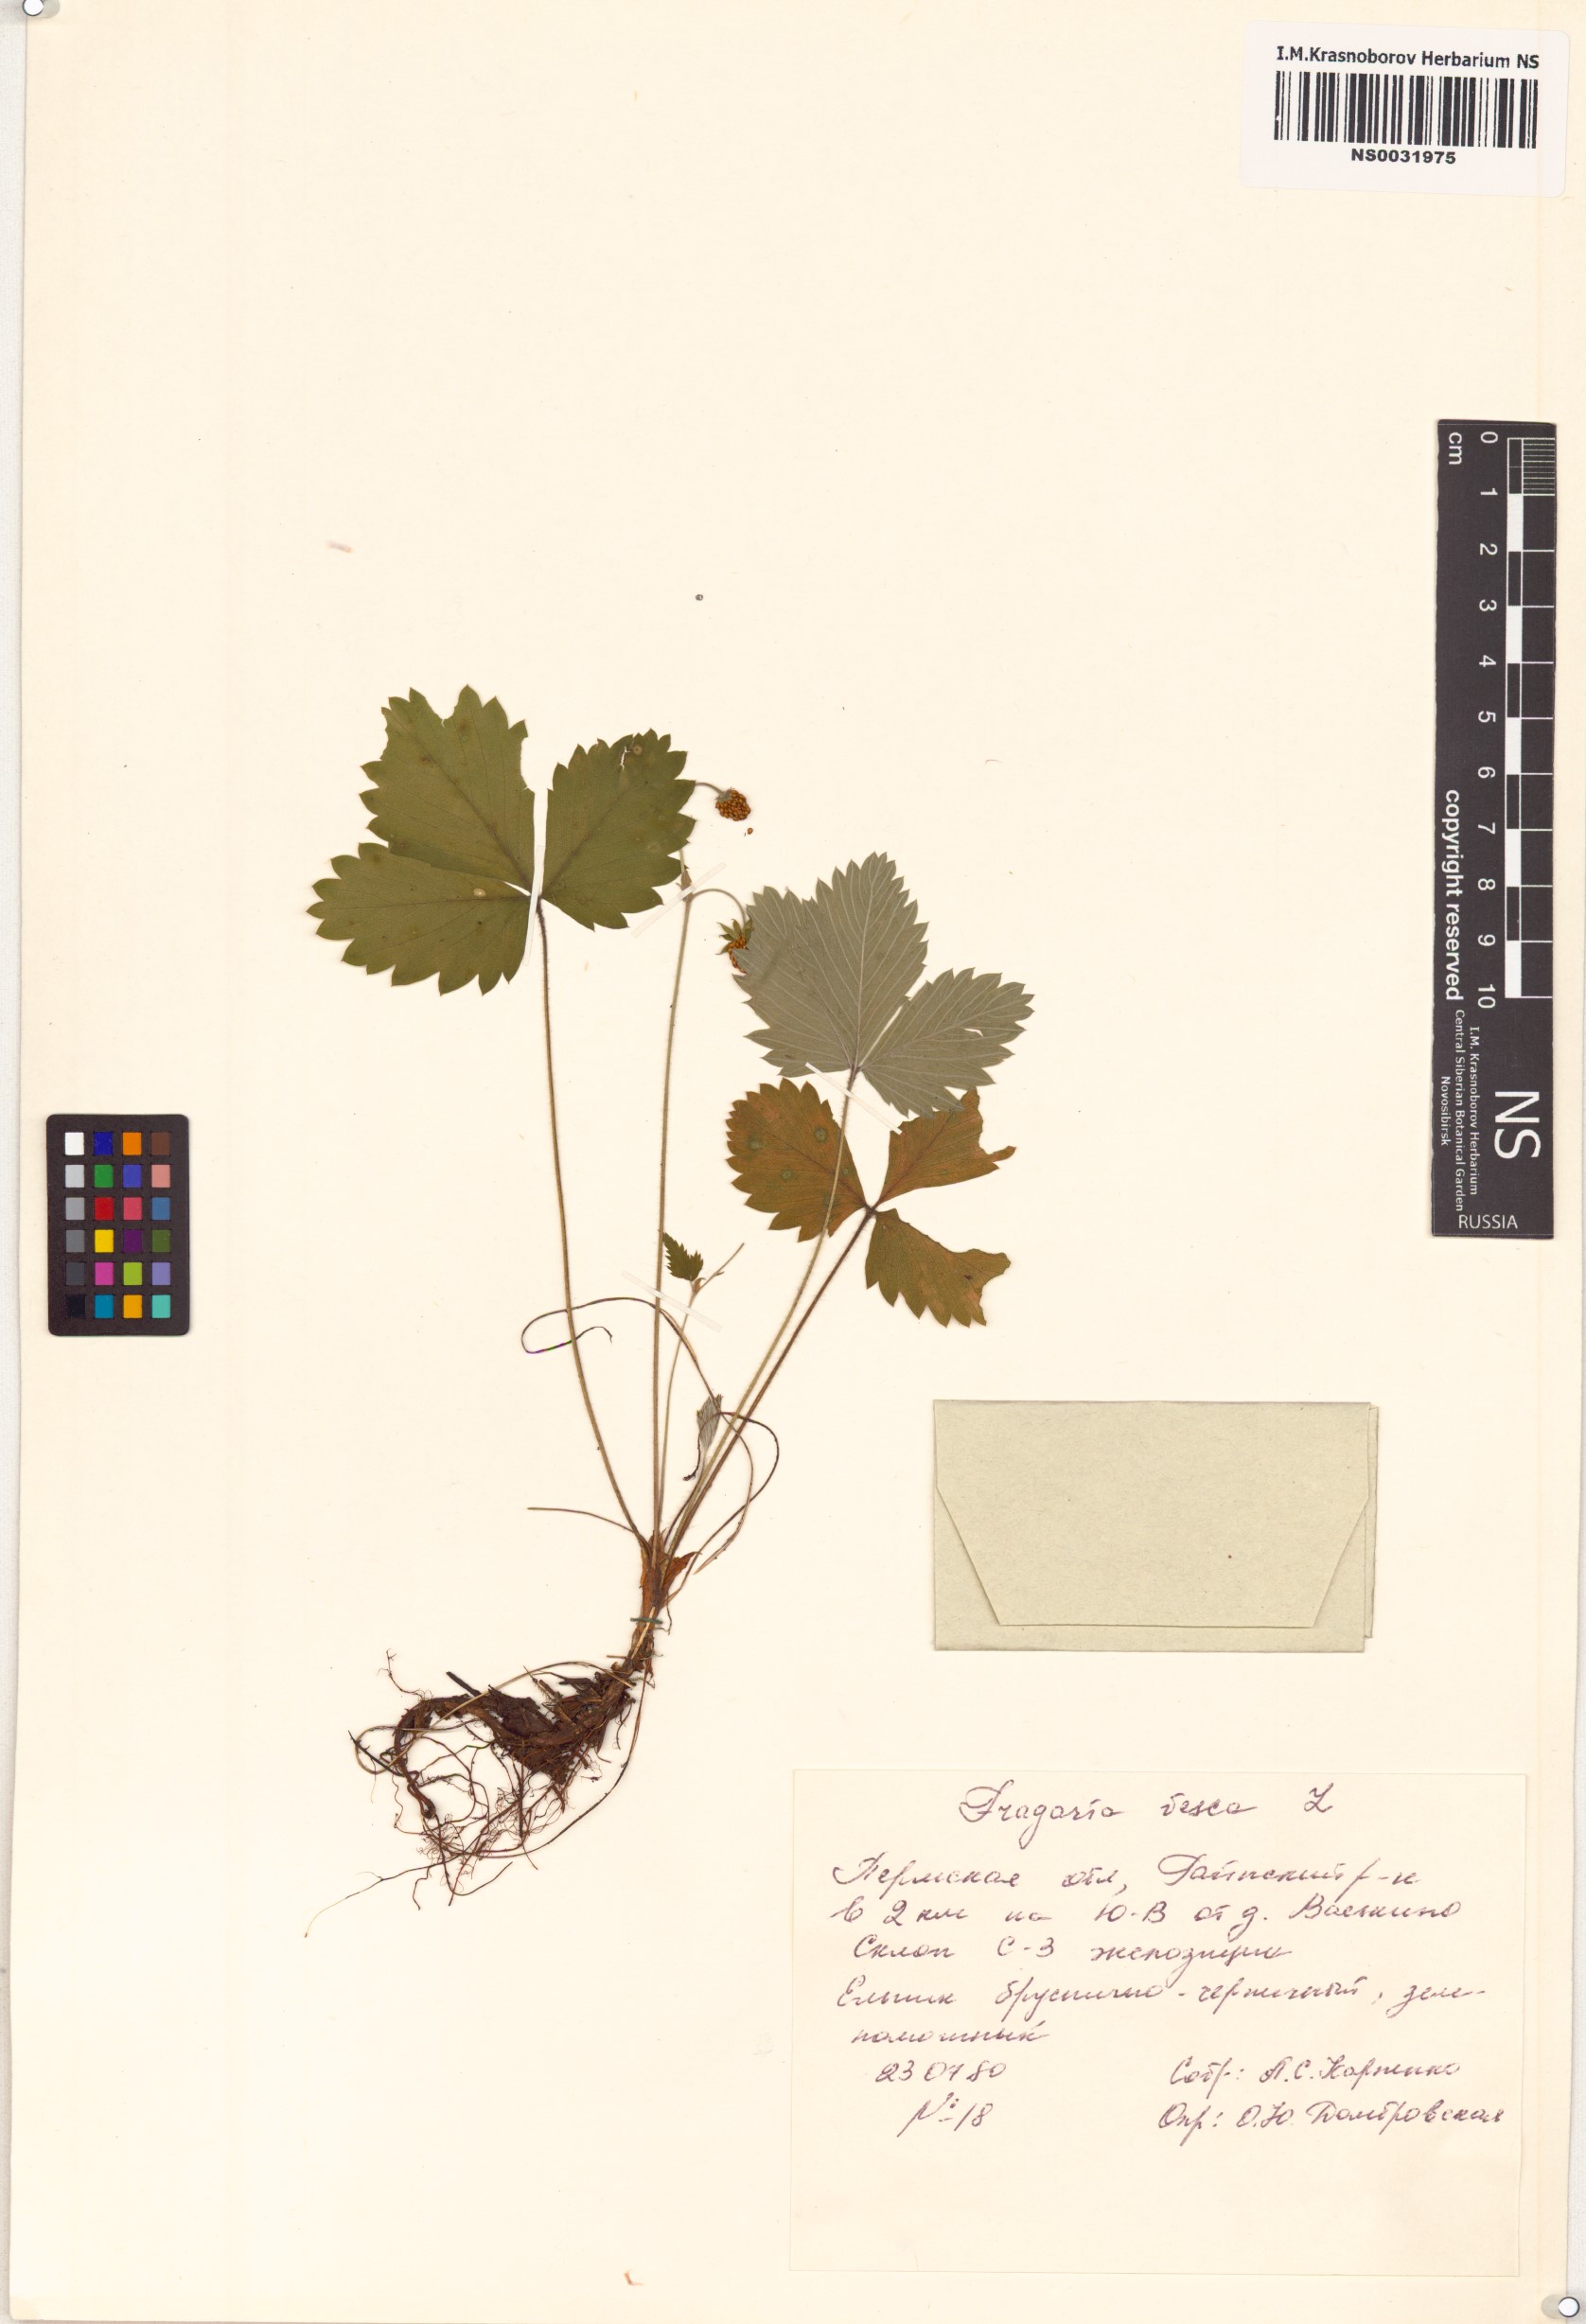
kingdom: Plantae
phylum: Tracheophyta
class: Magnoliopsida
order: Rosales
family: Rosaceae
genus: Fragaria
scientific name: Fragaria vesca
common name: Wild strawberry
